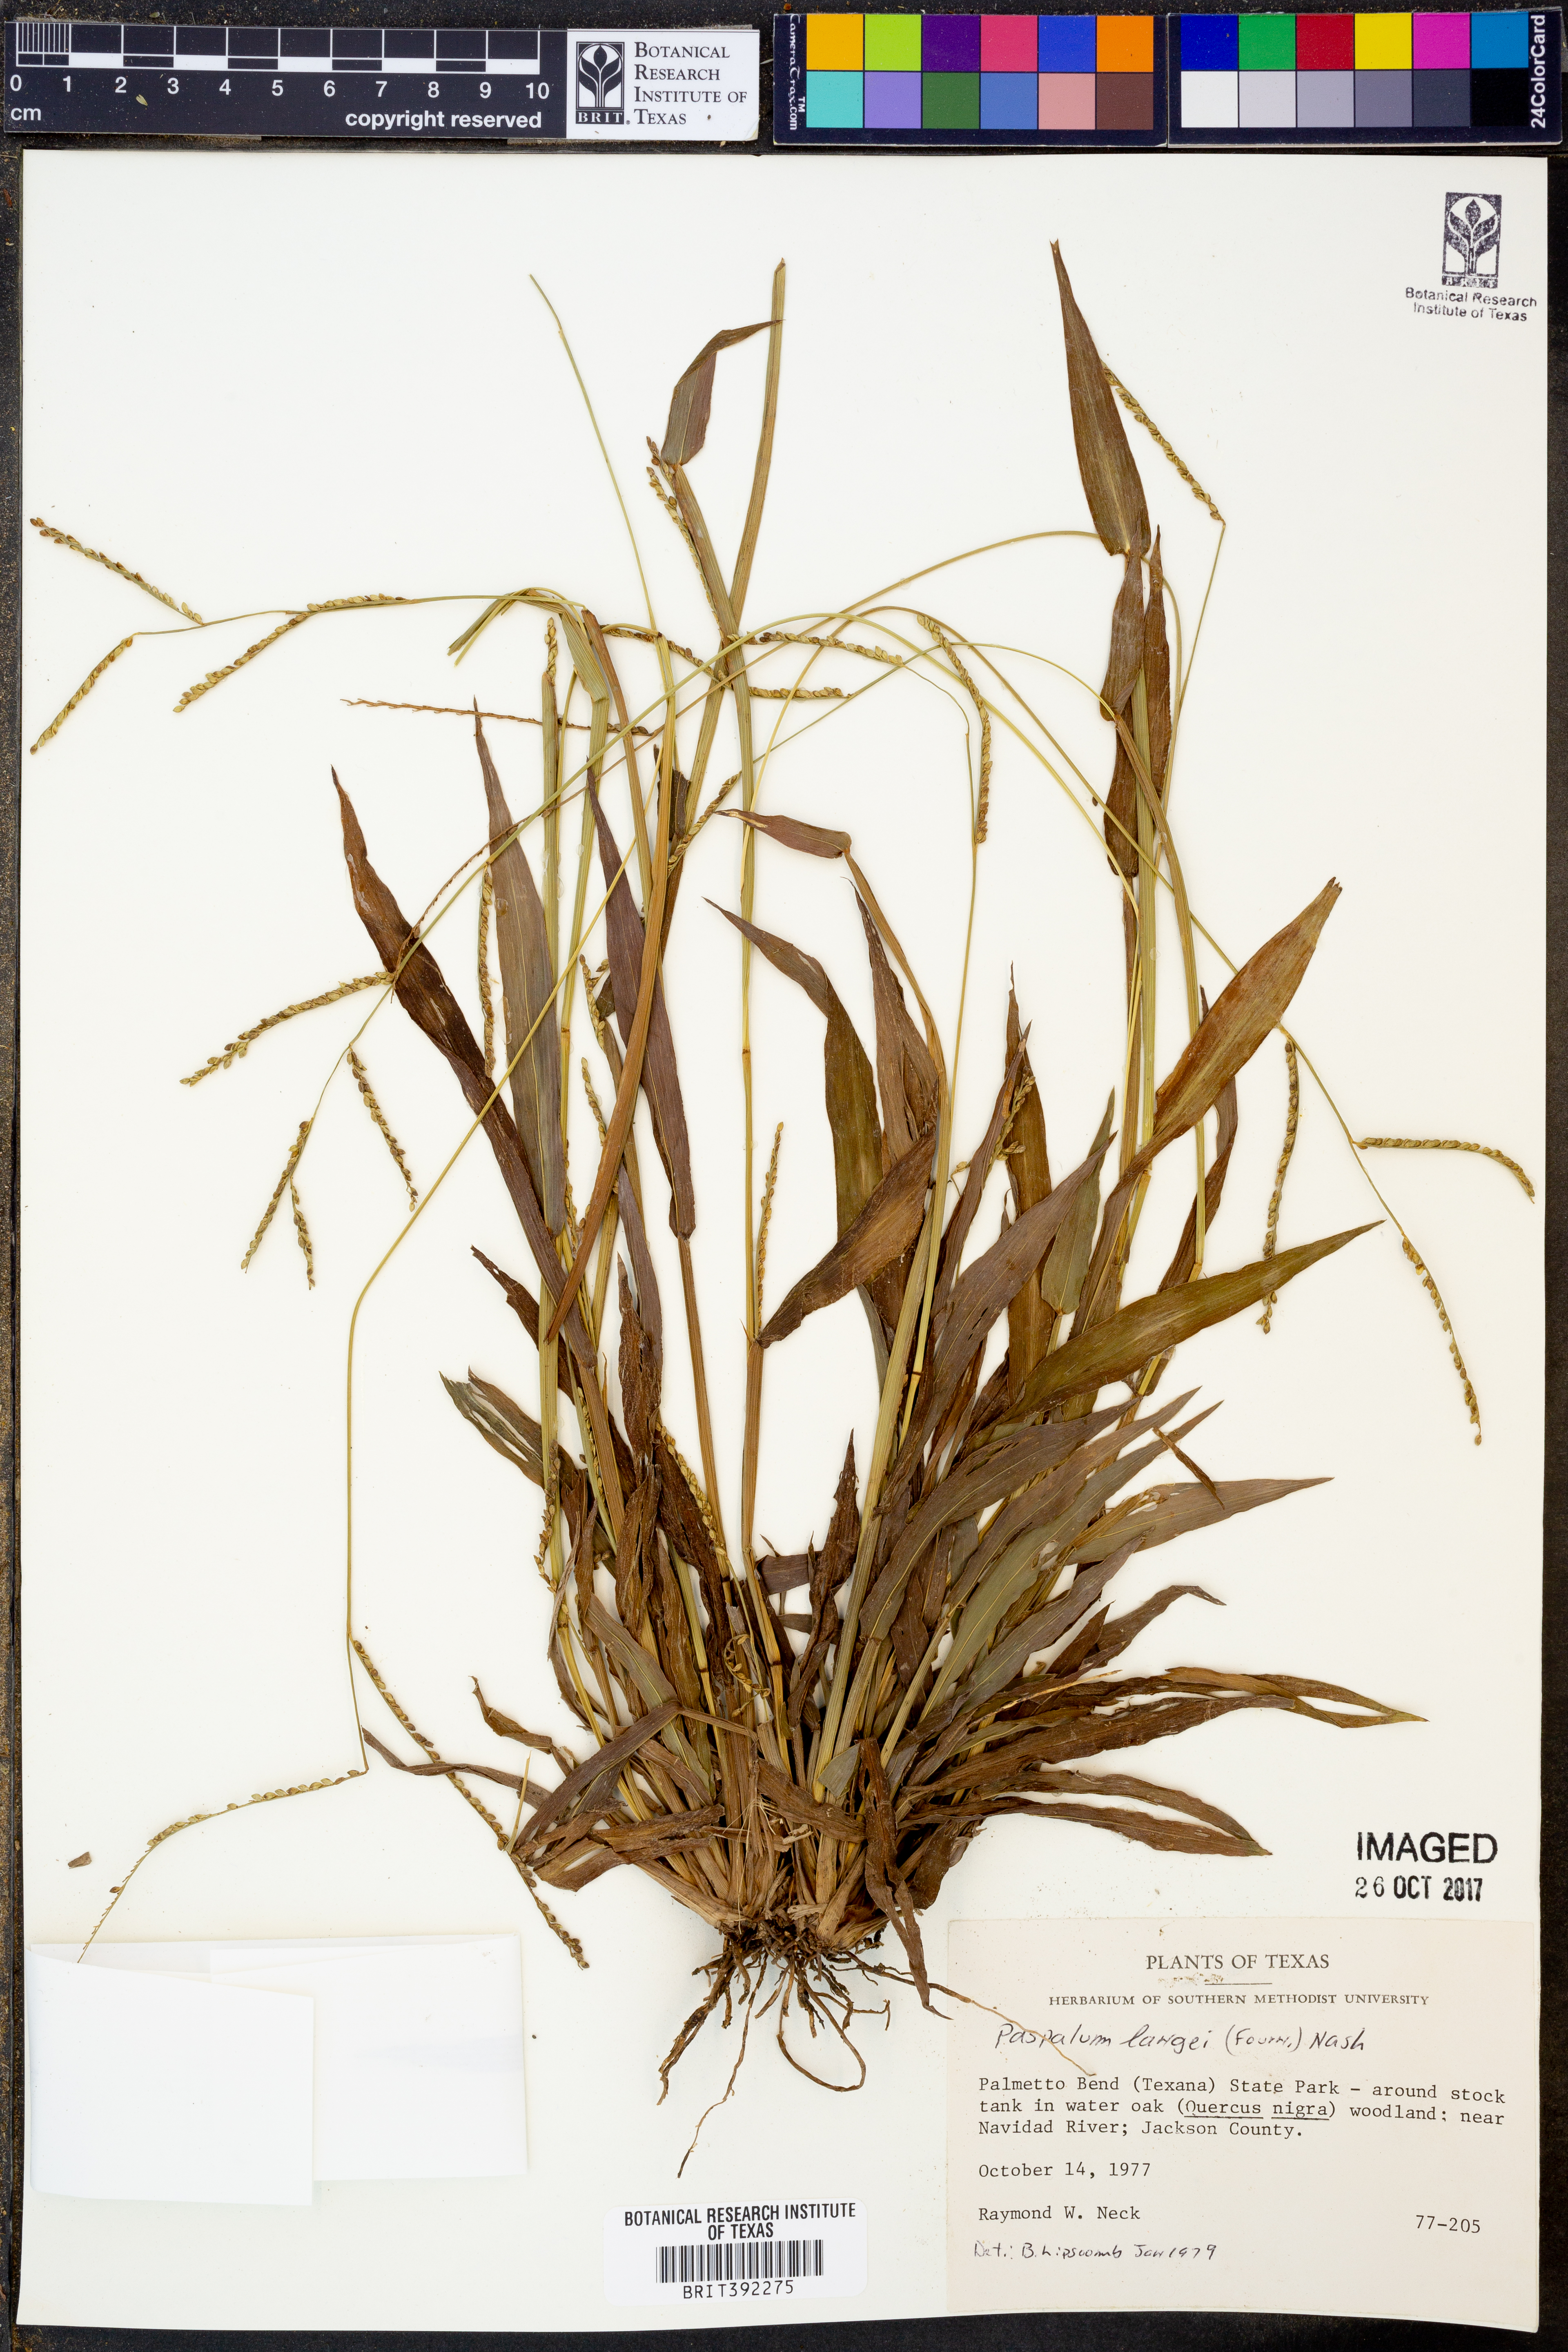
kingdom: Plantae
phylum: Tracheophyta
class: Liliopsida
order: Poales
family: Poaceae
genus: Paspalum
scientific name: Paspalum langei
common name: Rusty-seed paspalum
